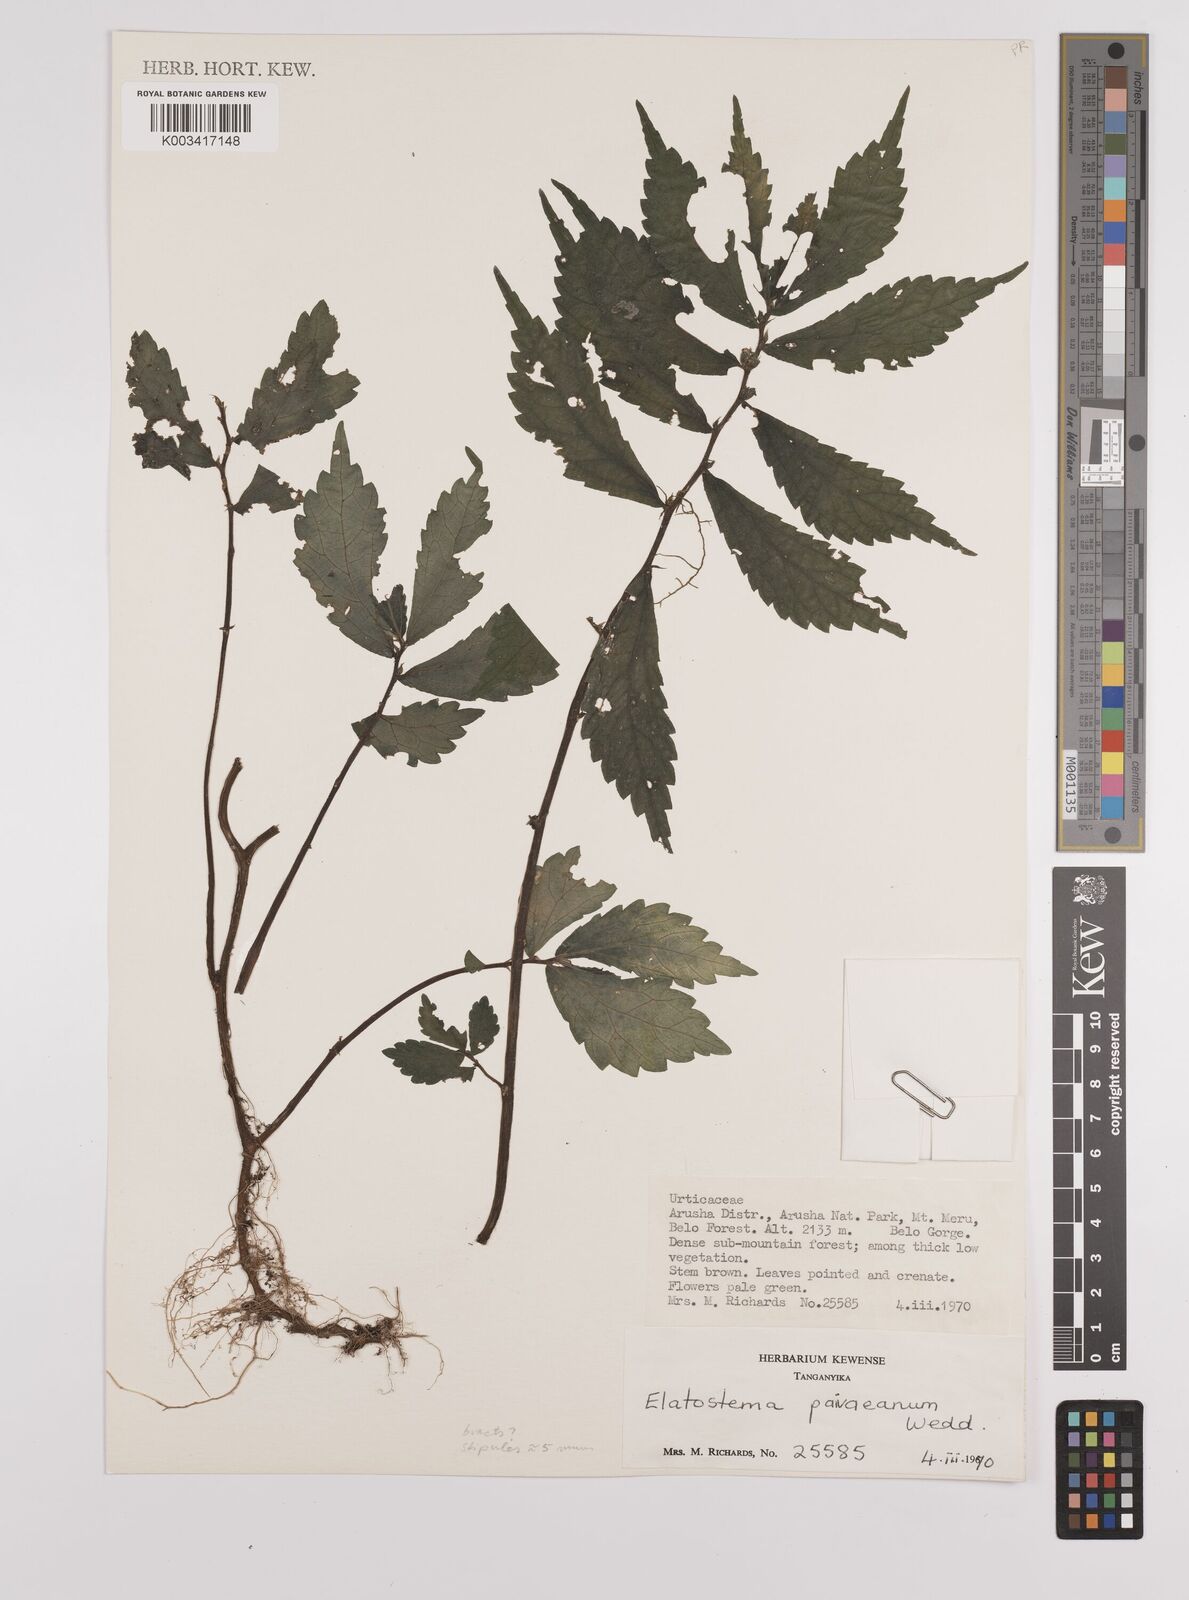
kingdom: Plantae
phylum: Tracheophyta
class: Magnoliopsida
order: Rosales
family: Urticaceae
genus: Elatostema
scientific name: Elatostema paivaeanum
